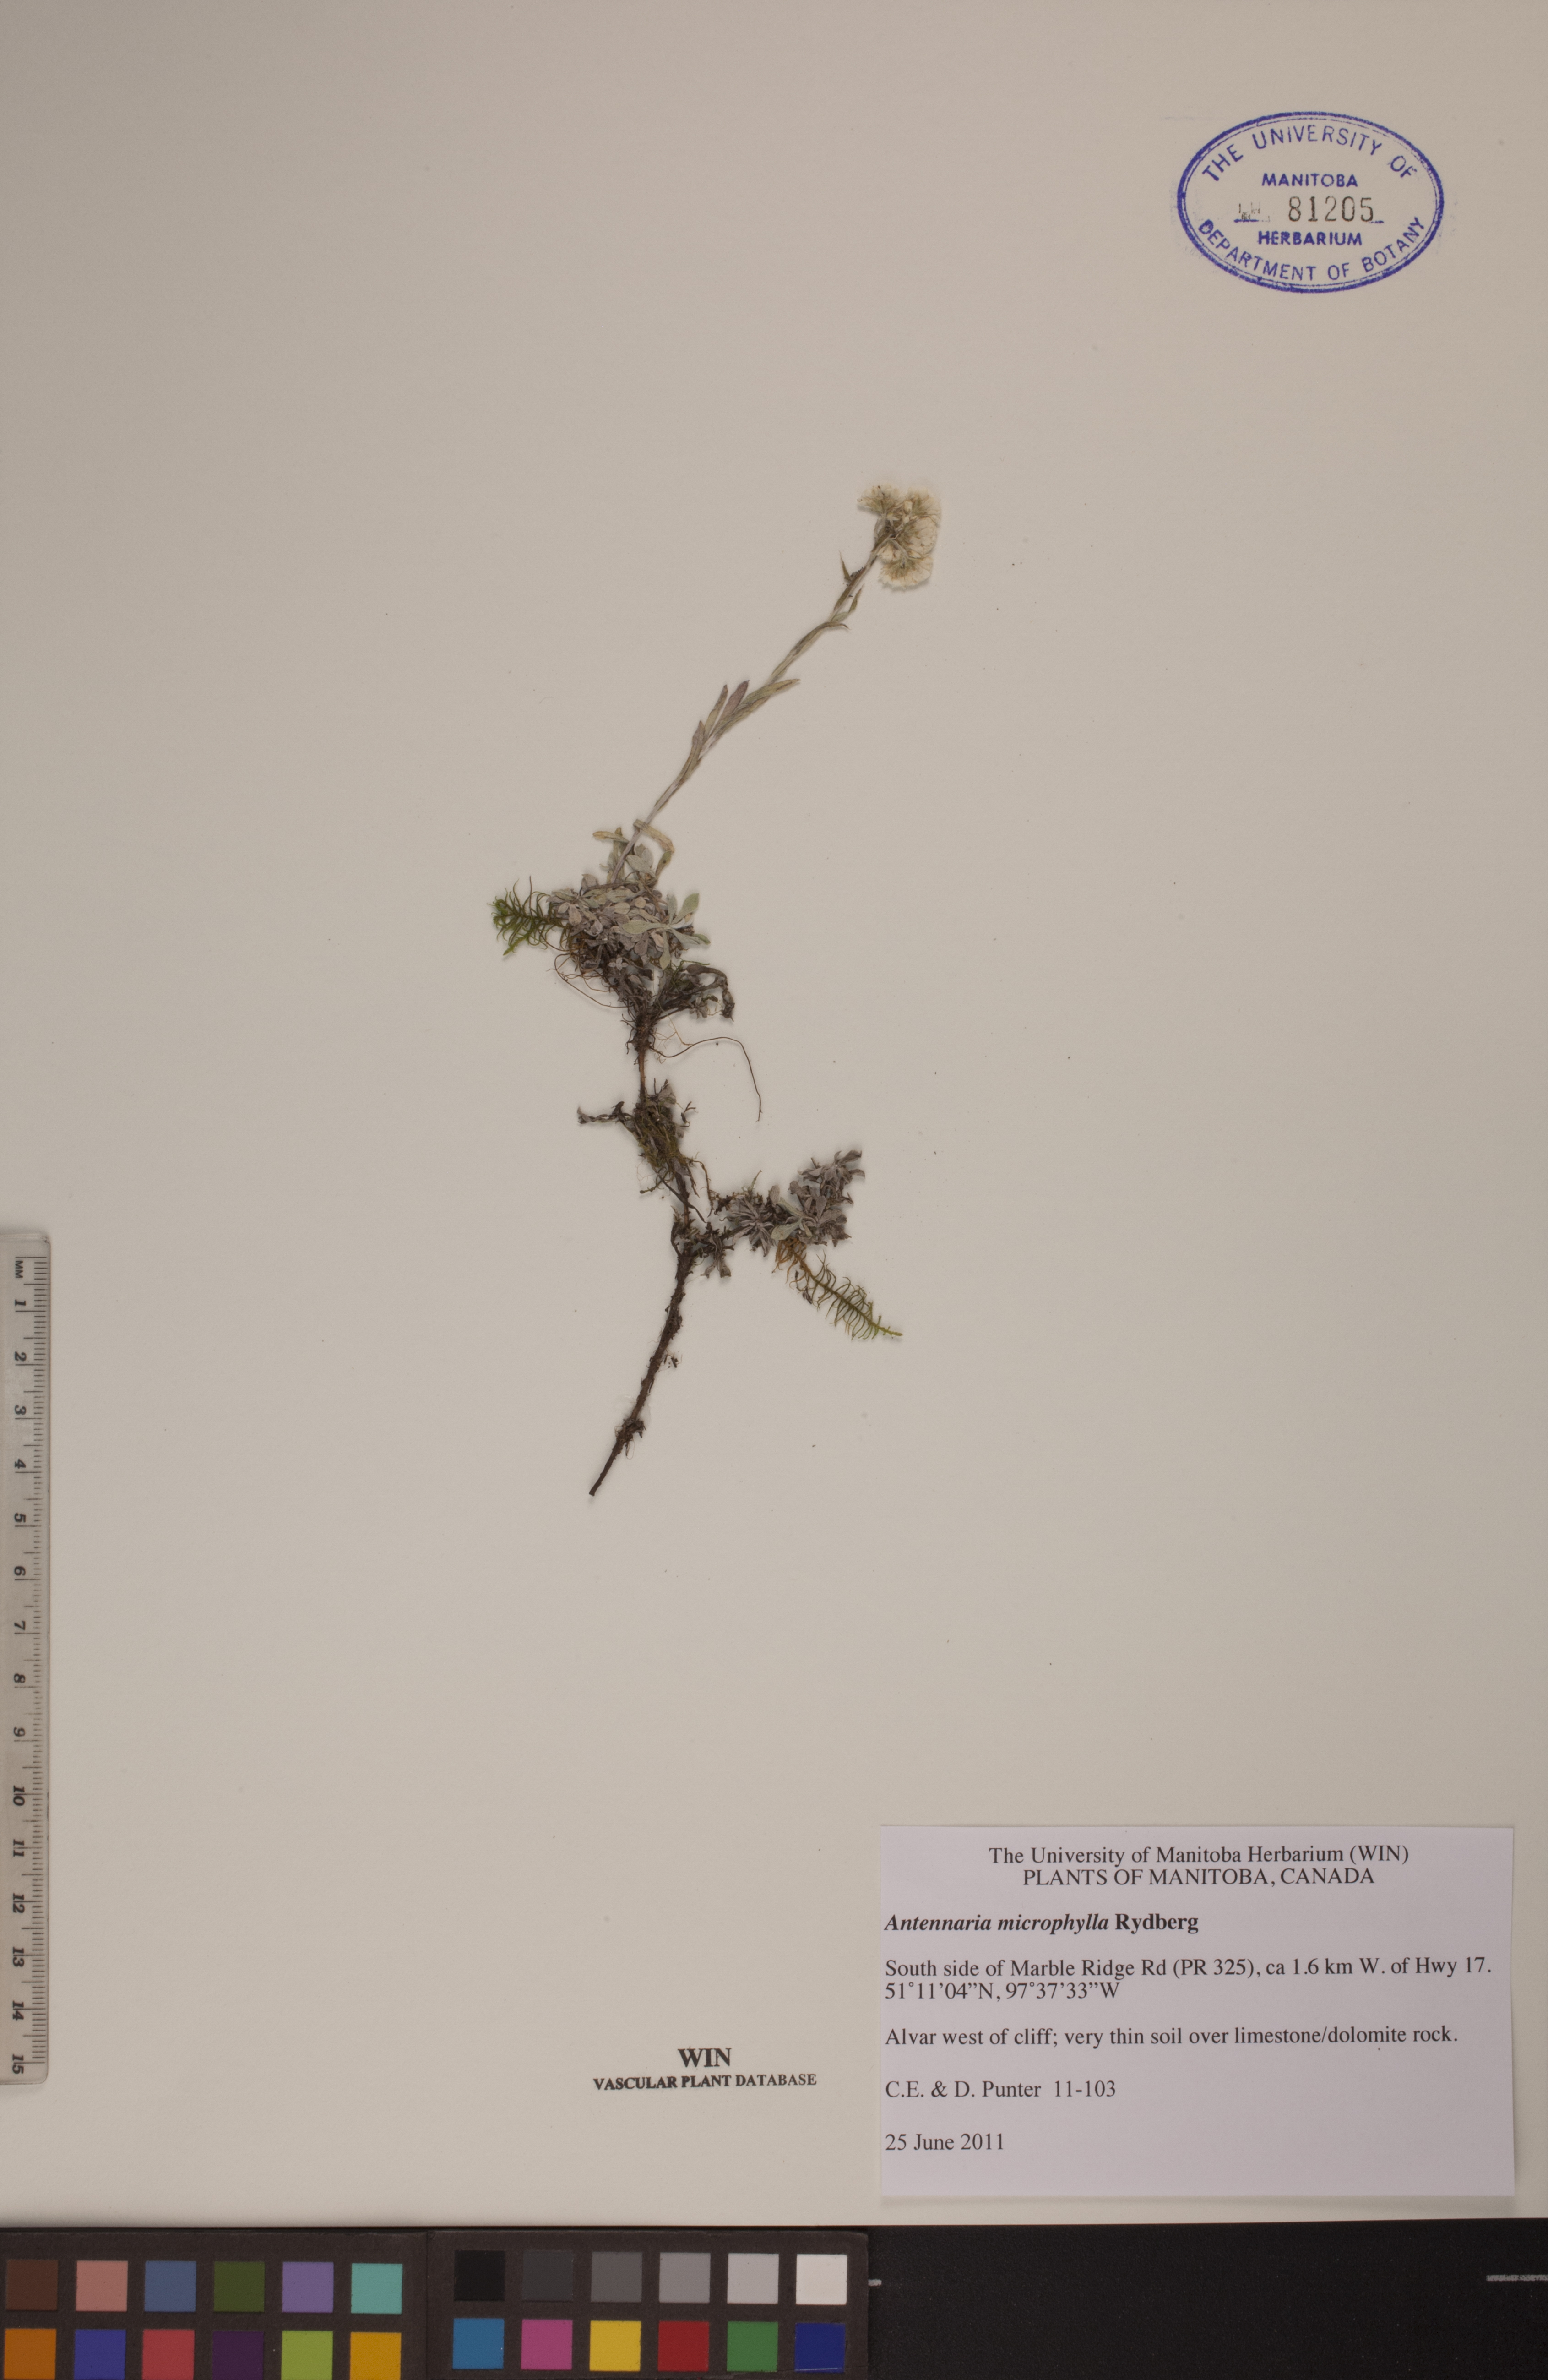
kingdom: Plantae
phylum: Tracheophyta
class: Magnoliopsida
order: Asterales
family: Asteraceae
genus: Antennaria
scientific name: Antennaria microphylla
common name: Littleleaf pussytoes
